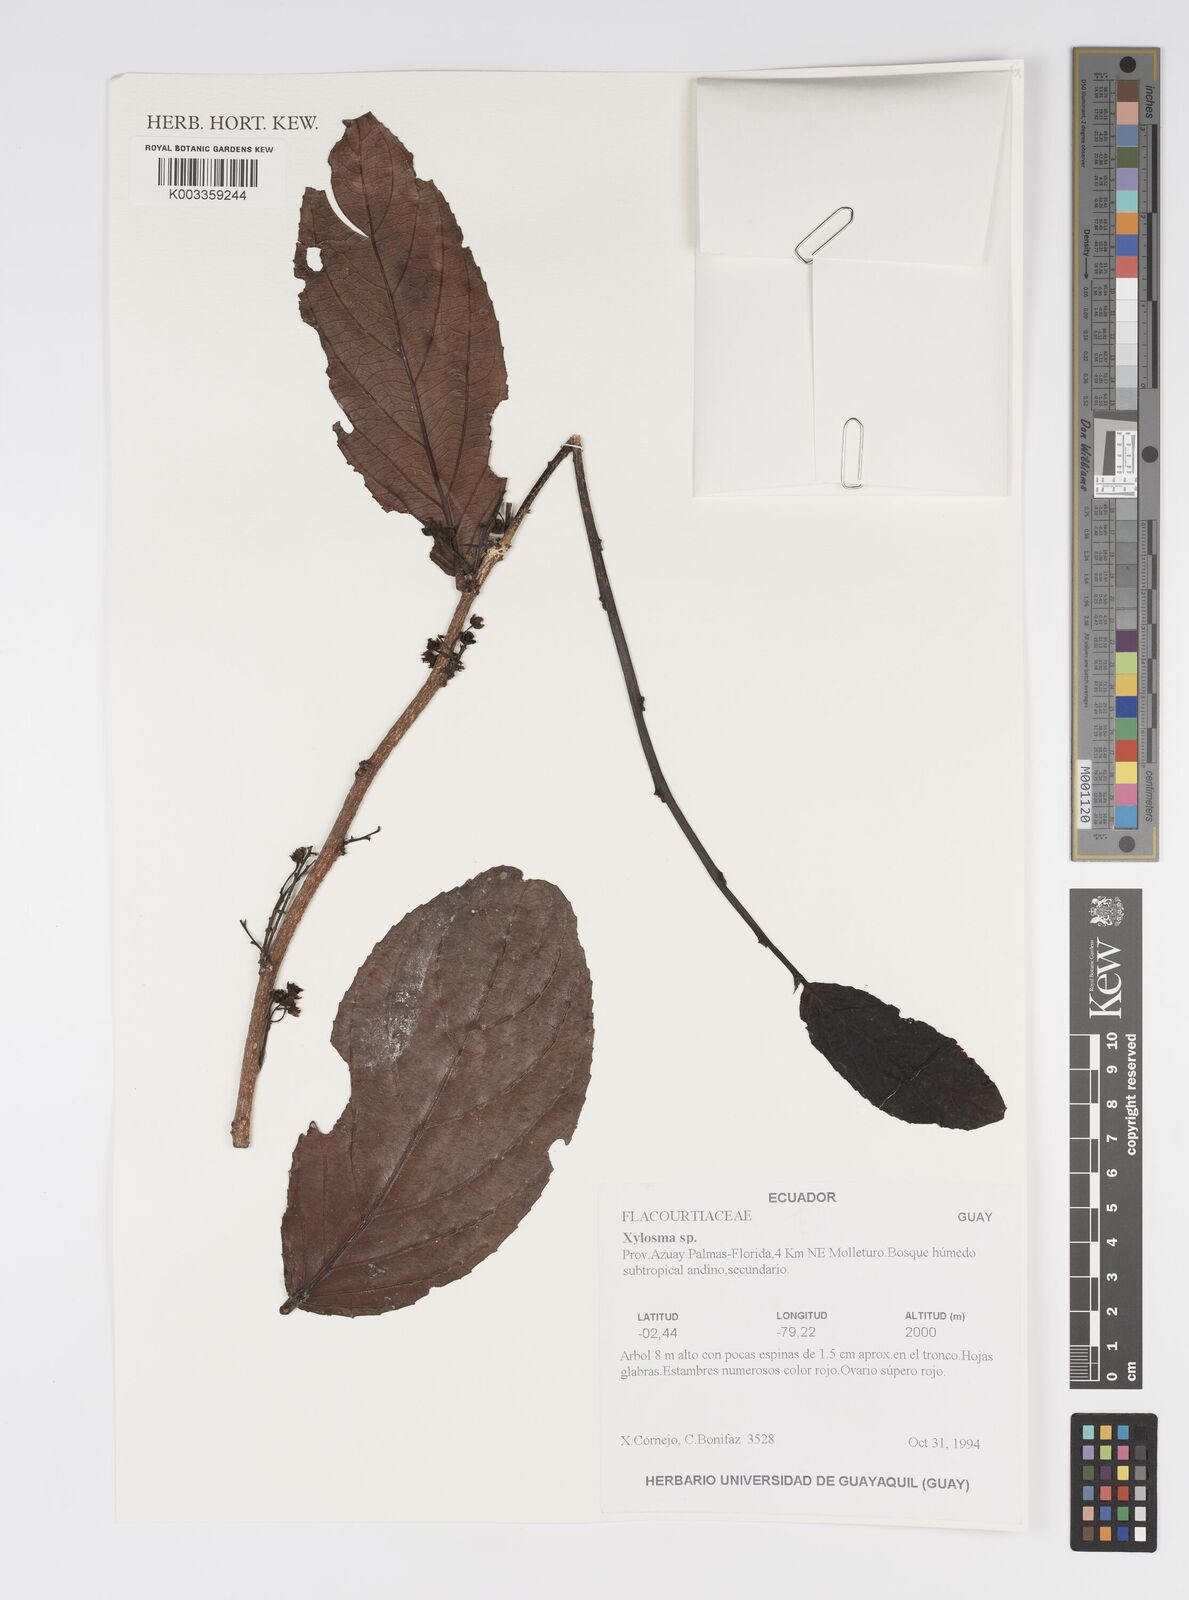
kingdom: Plantae
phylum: Tracheophyta
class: Magnoliopsida
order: Malpighiales
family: Salicaceae
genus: Xylosma
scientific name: Xylosma
